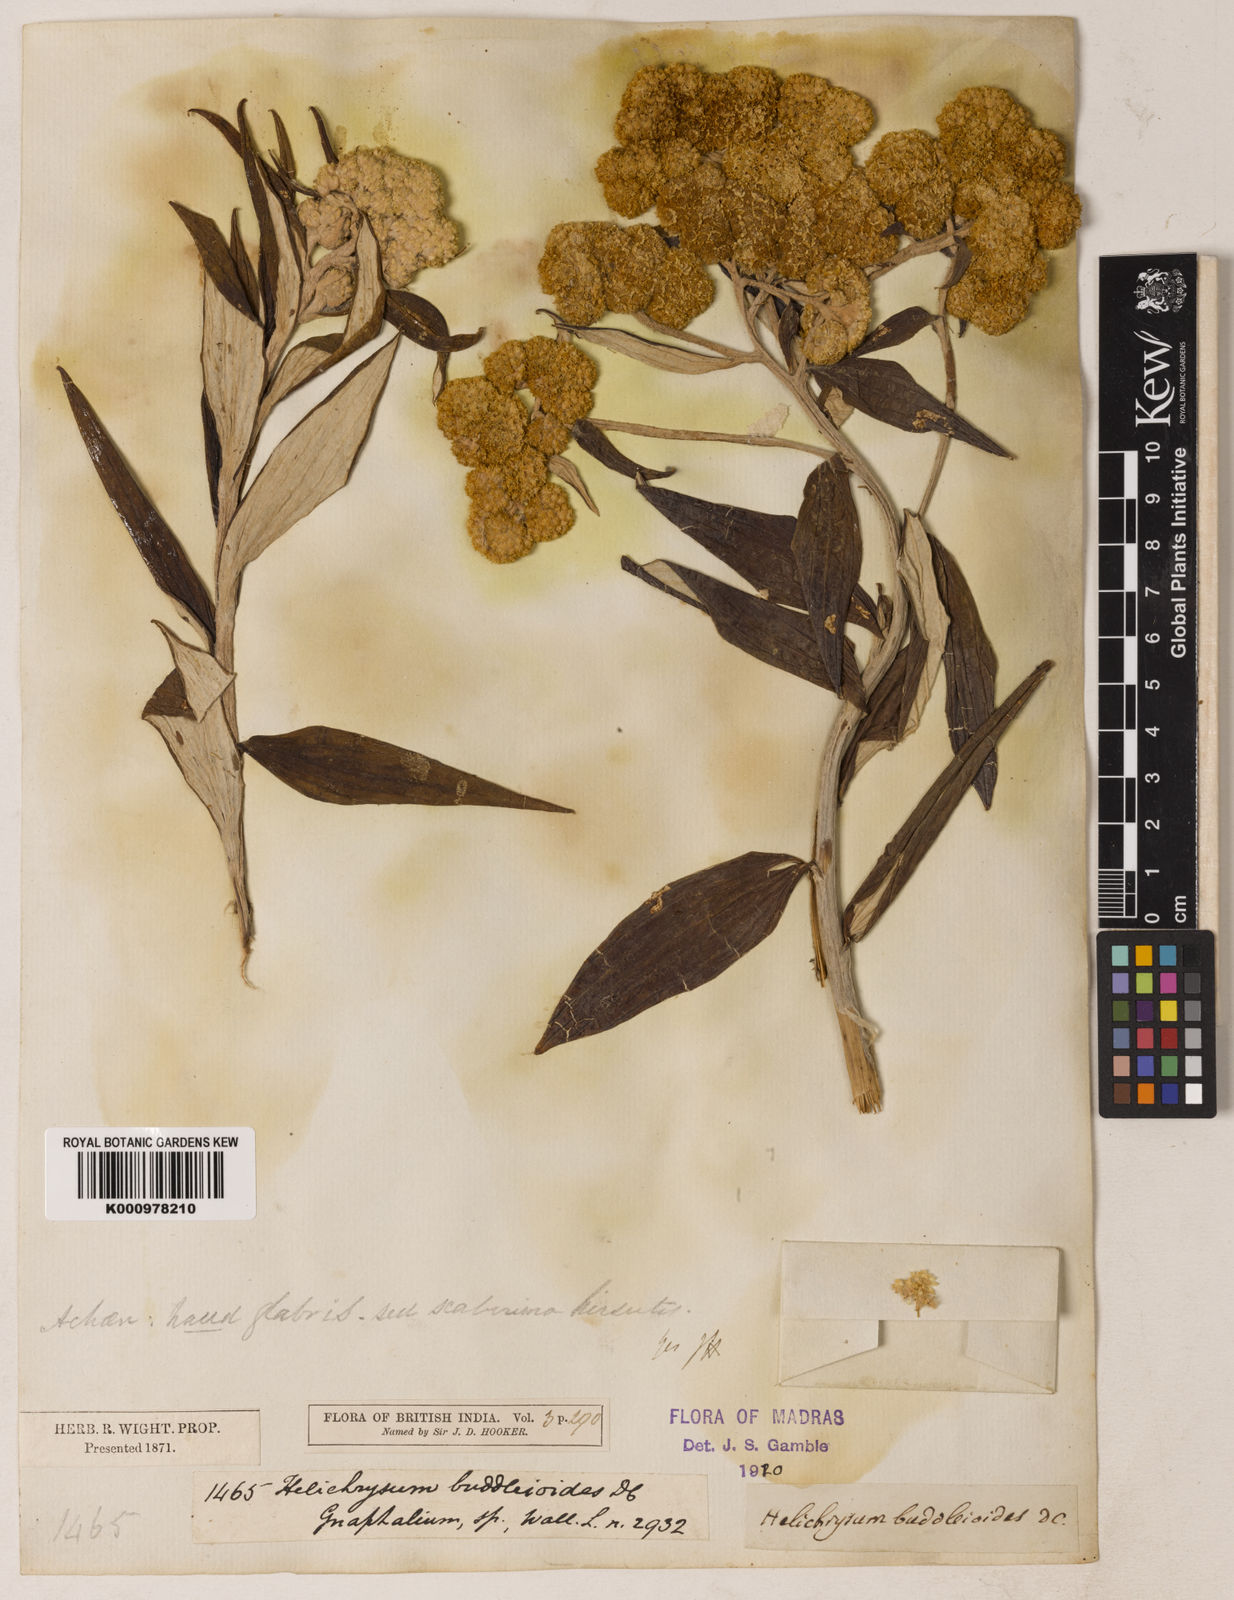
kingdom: Plantae
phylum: Tracheophyta
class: Magnoliopsida
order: Asterales
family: Asteraceae
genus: Helichrysum
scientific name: Helichrysum
